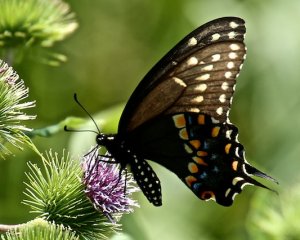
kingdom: Animalia
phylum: Arthropoda
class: Insecta
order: Lepidoptera
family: Papilionidae
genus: Papilio
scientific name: Papilio polyxenes
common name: Black Swallowtail
